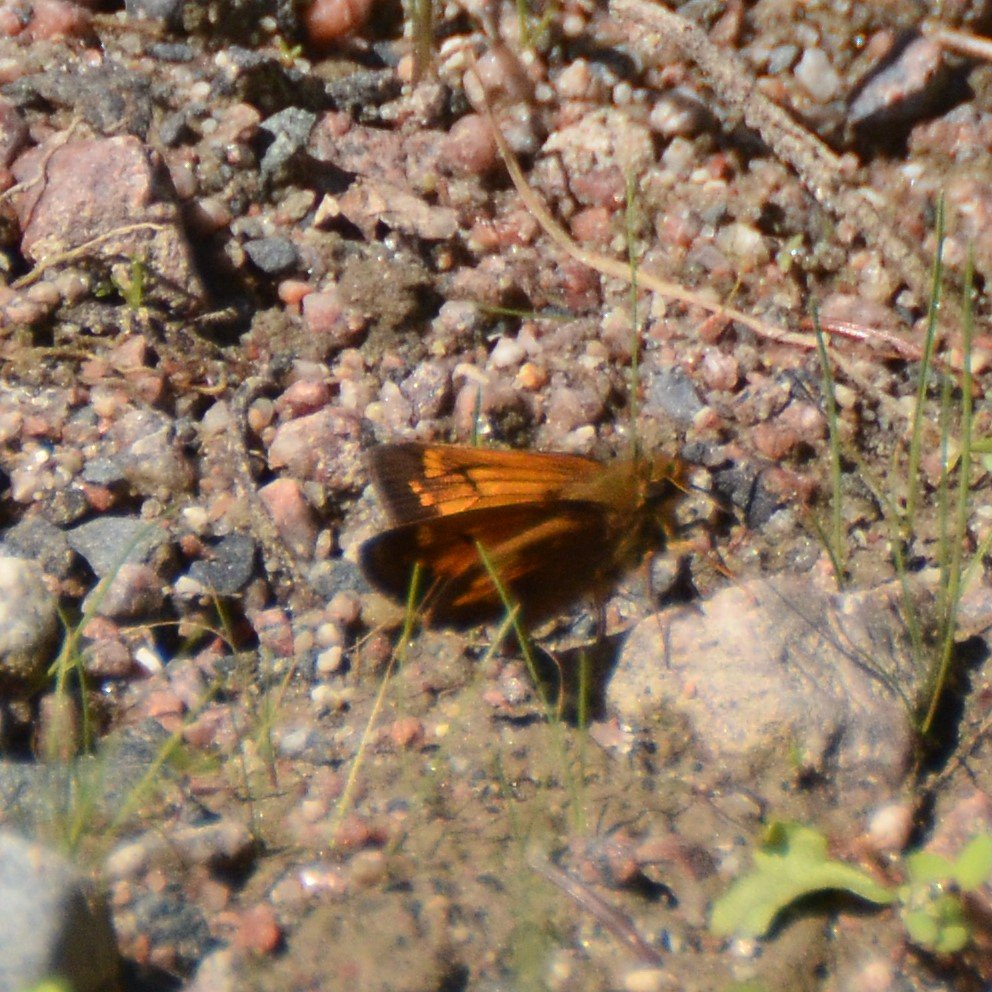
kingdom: Animalia
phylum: Arthropoda
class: Insecta
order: Lepidoptera
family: Hesperiidae
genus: Lon
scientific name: Lon hobomok
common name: Hobomok Skipper
